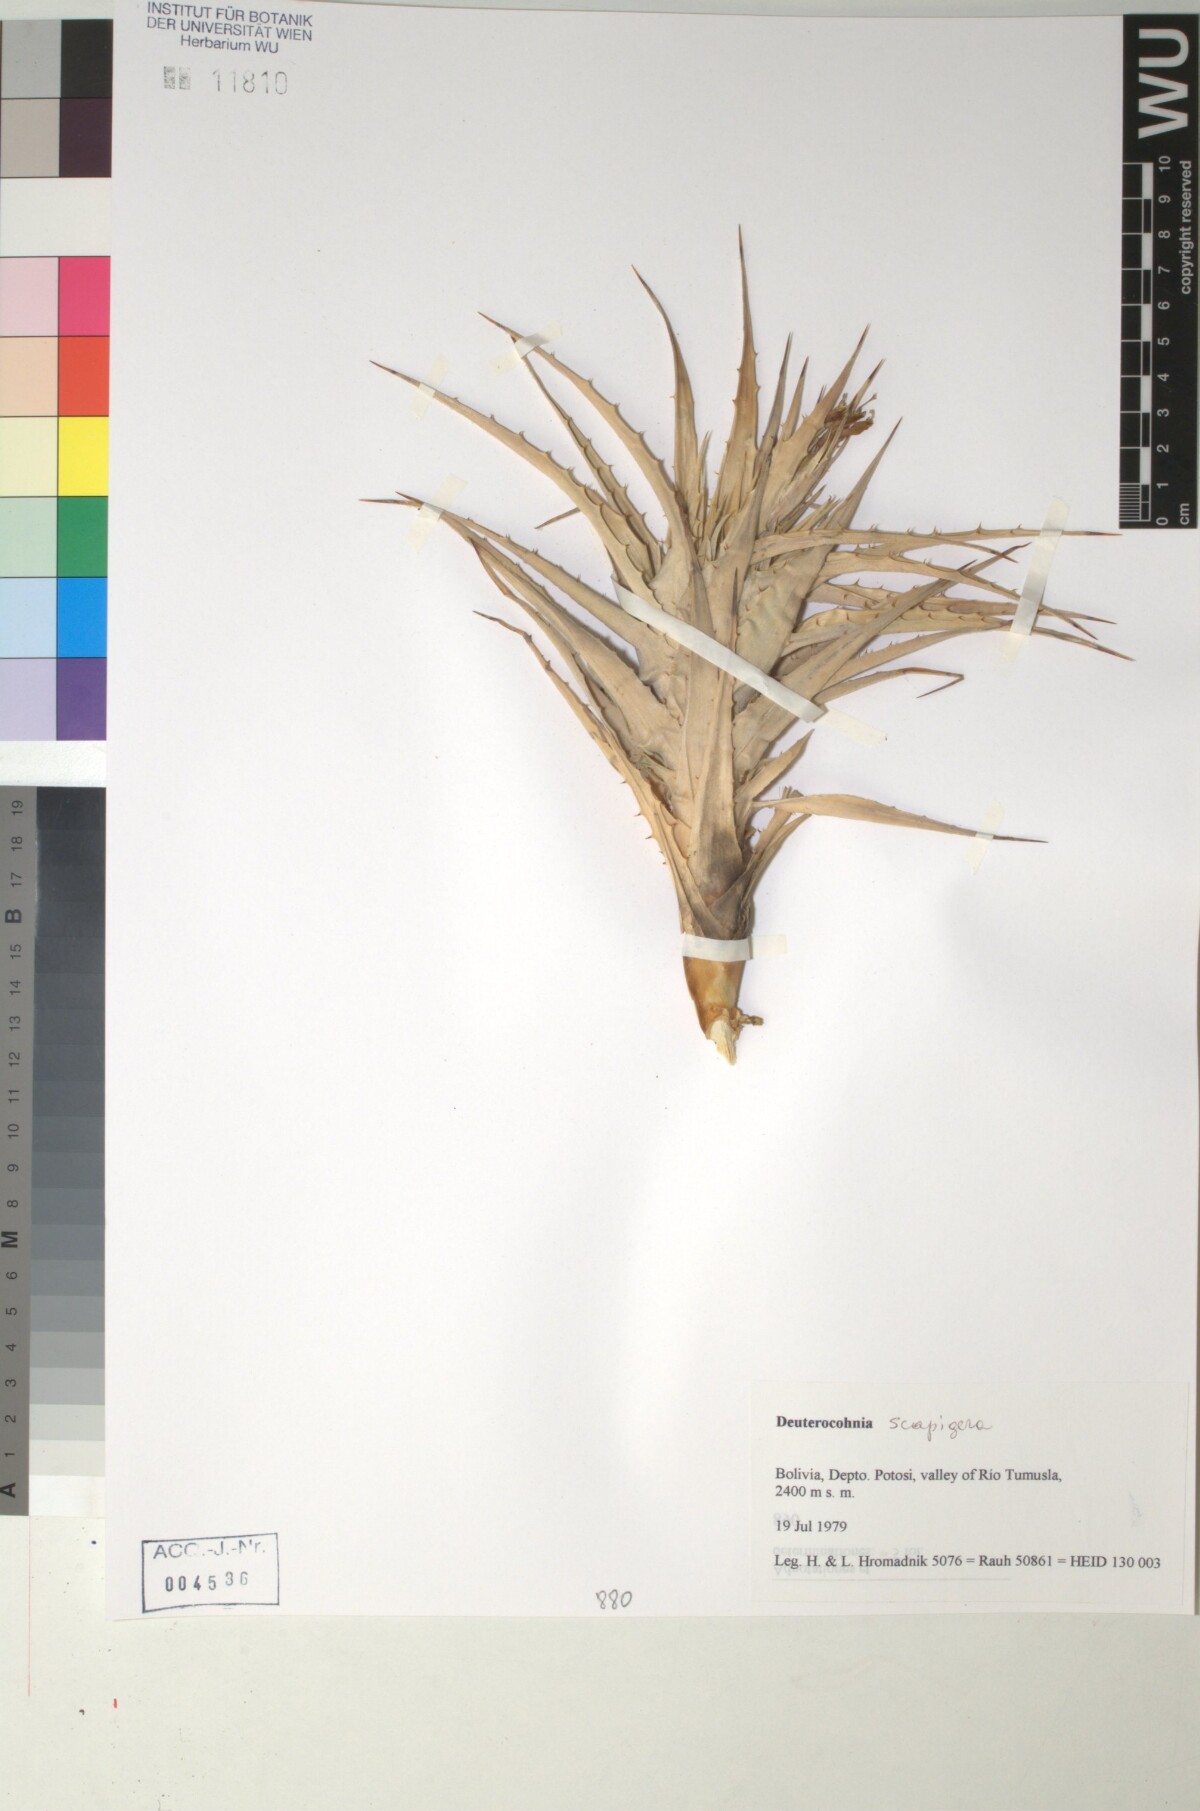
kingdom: Plantae
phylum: Tracheophyta
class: Liliopsida
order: Poales
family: Bromeliaceae
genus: Deuterocohnia
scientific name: Deuterocohnia scapigera
